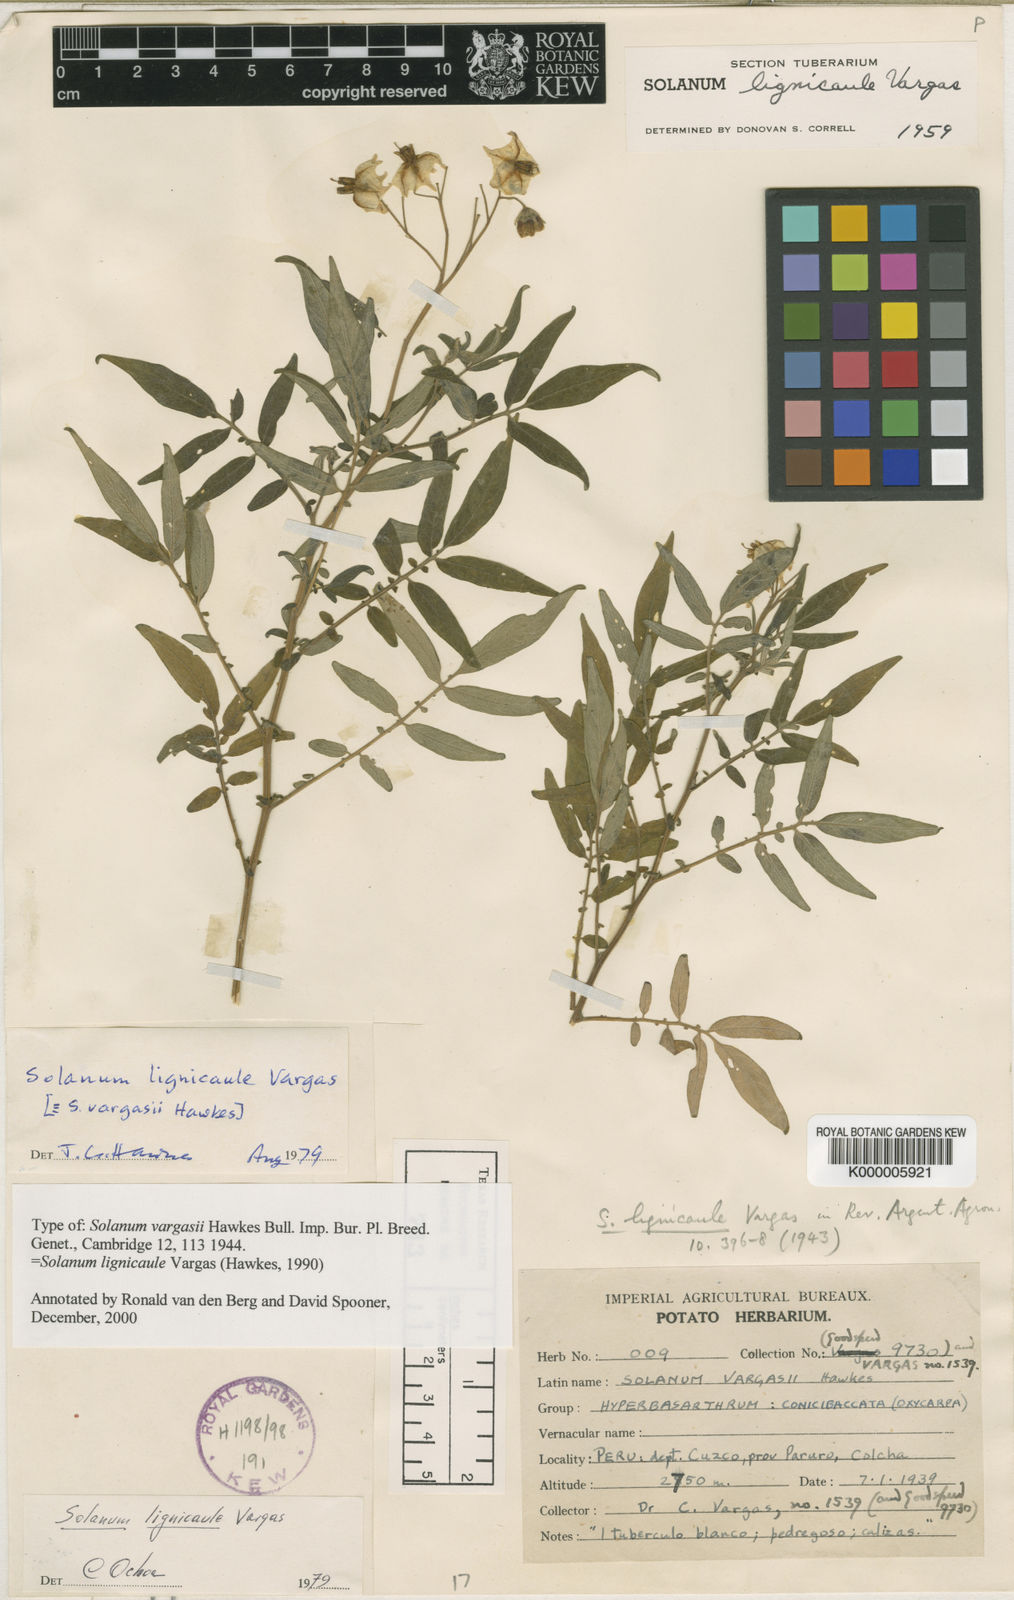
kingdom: Plantae
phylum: Tracheophyta
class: Magnoliopsida
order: Solanales
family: Solanaceae
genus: Solanum
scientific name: Solanum lignicaule
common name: Fox potato
